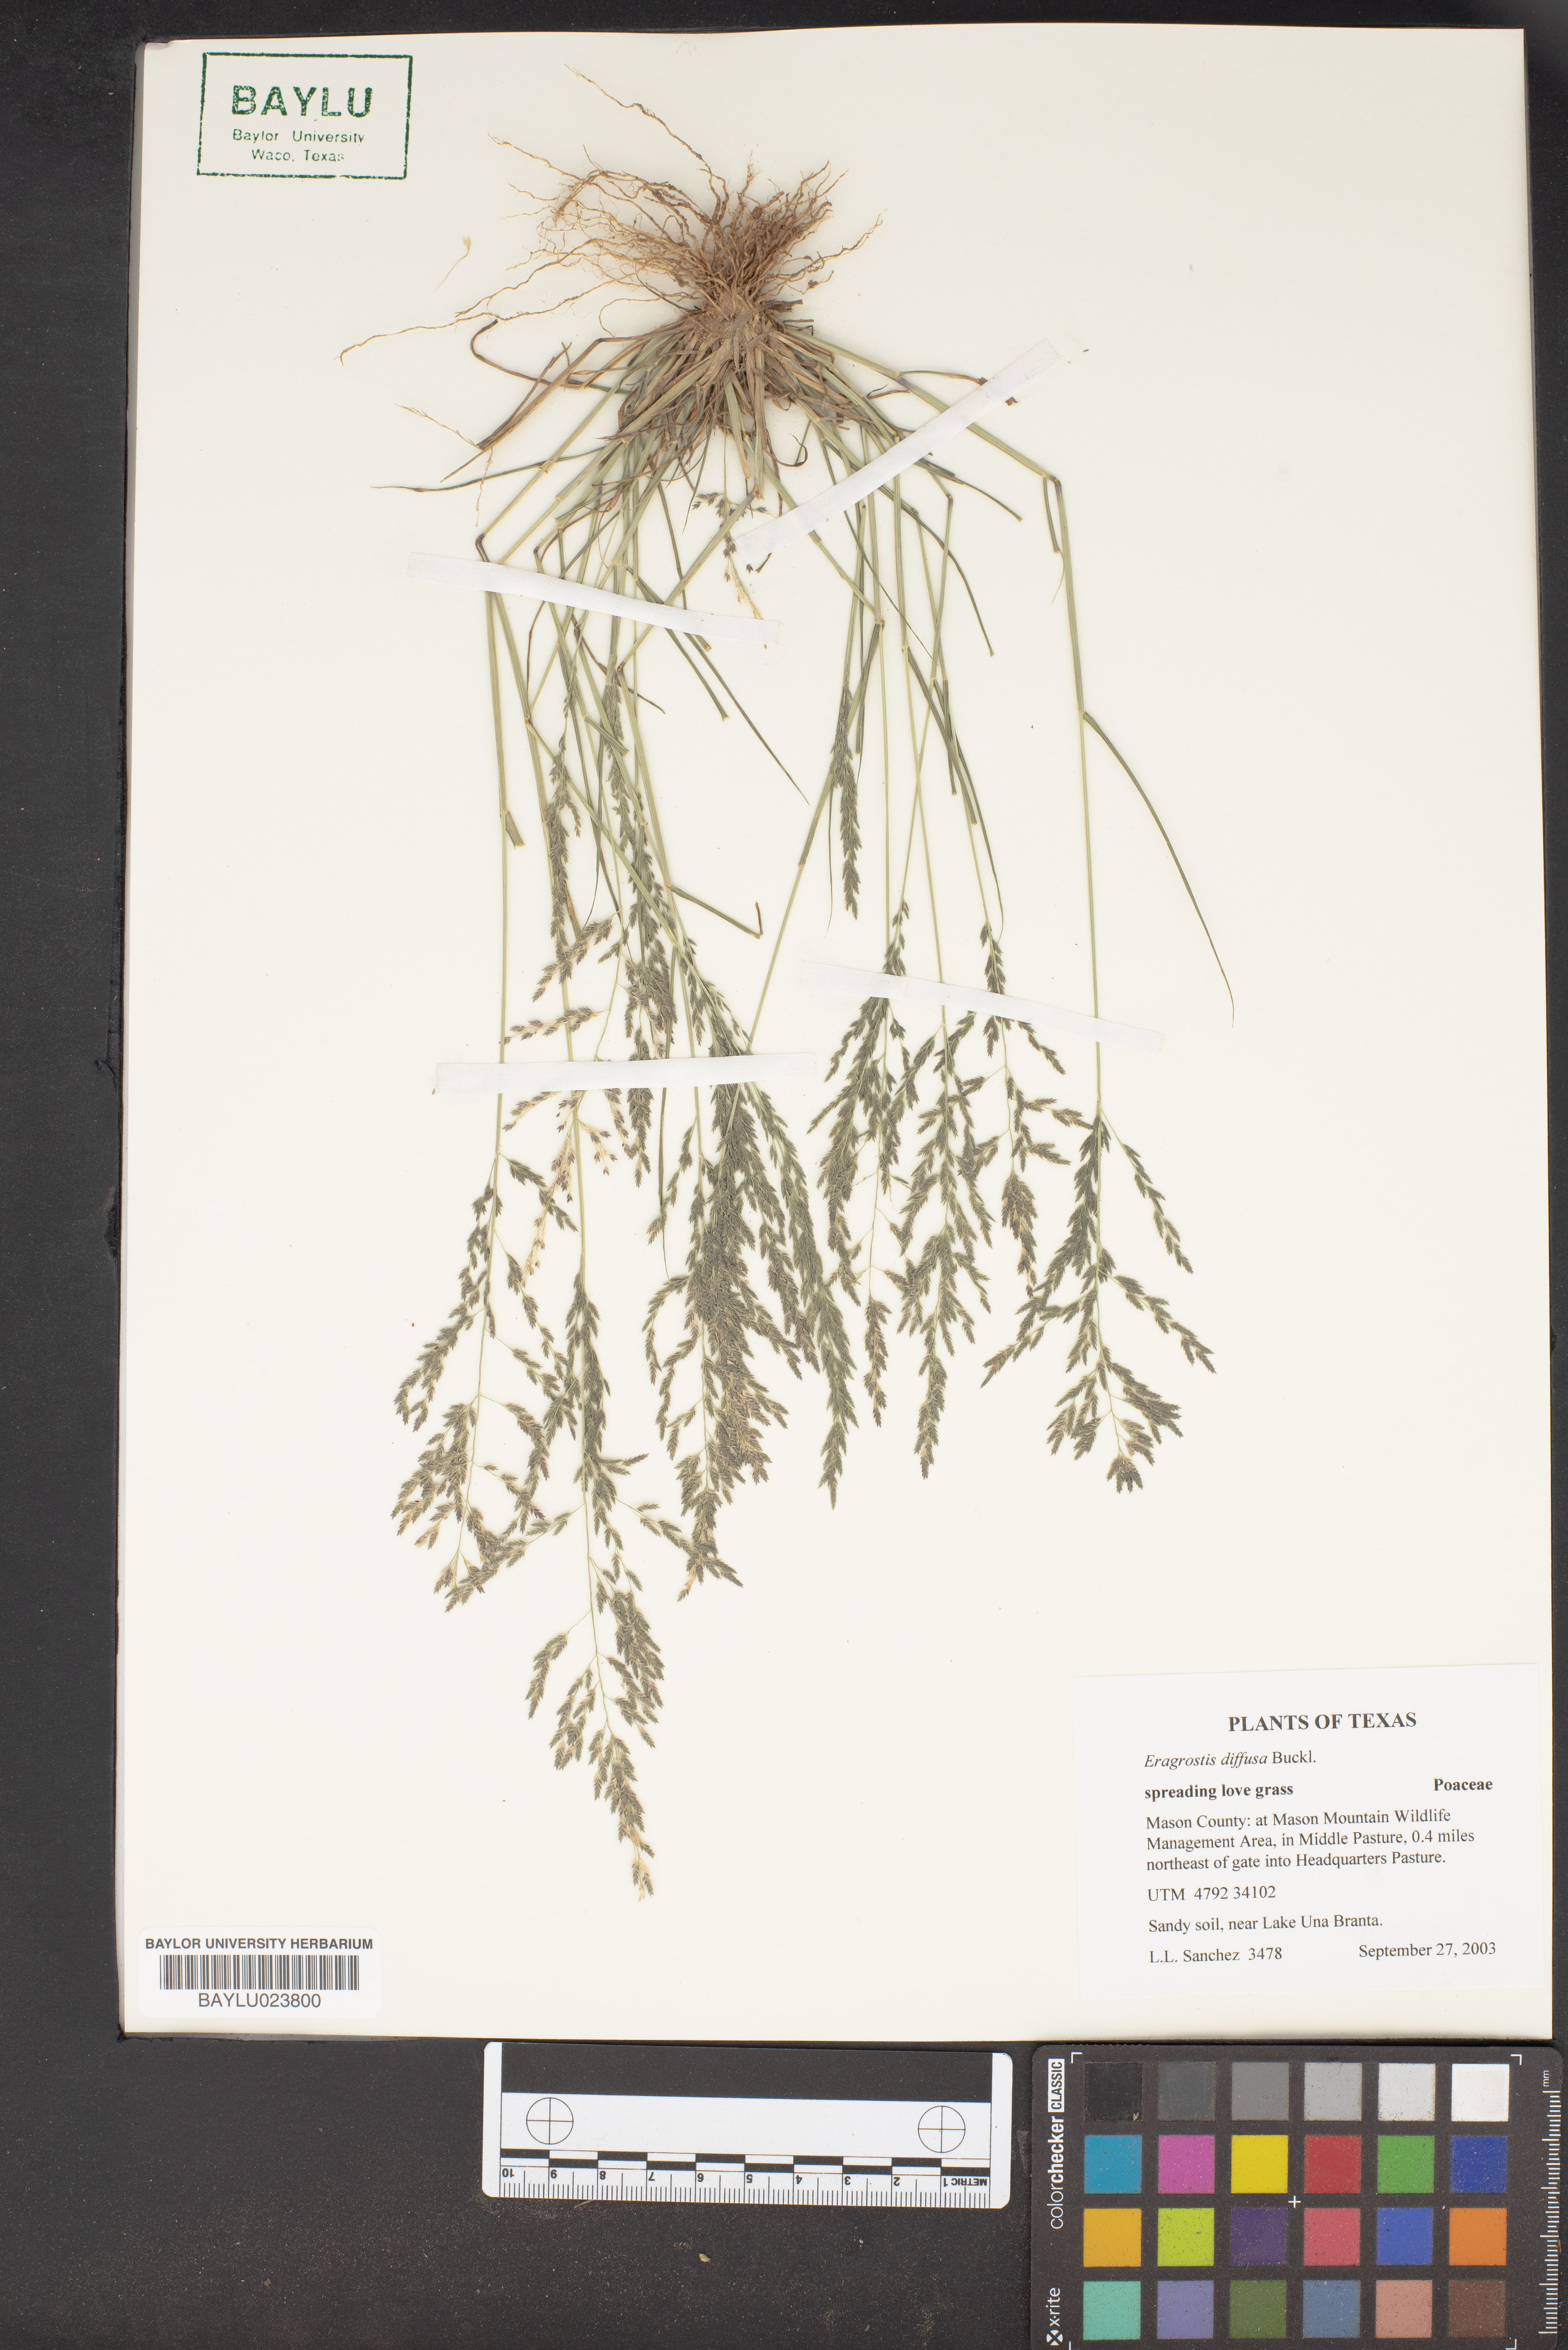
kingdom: Plantae
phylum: Tracheophyta
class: Liliopsida
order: Poales
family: Poaceae
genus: Eragrostis
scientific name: Eragrostis pectinacea
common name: Tufted lovegrass
